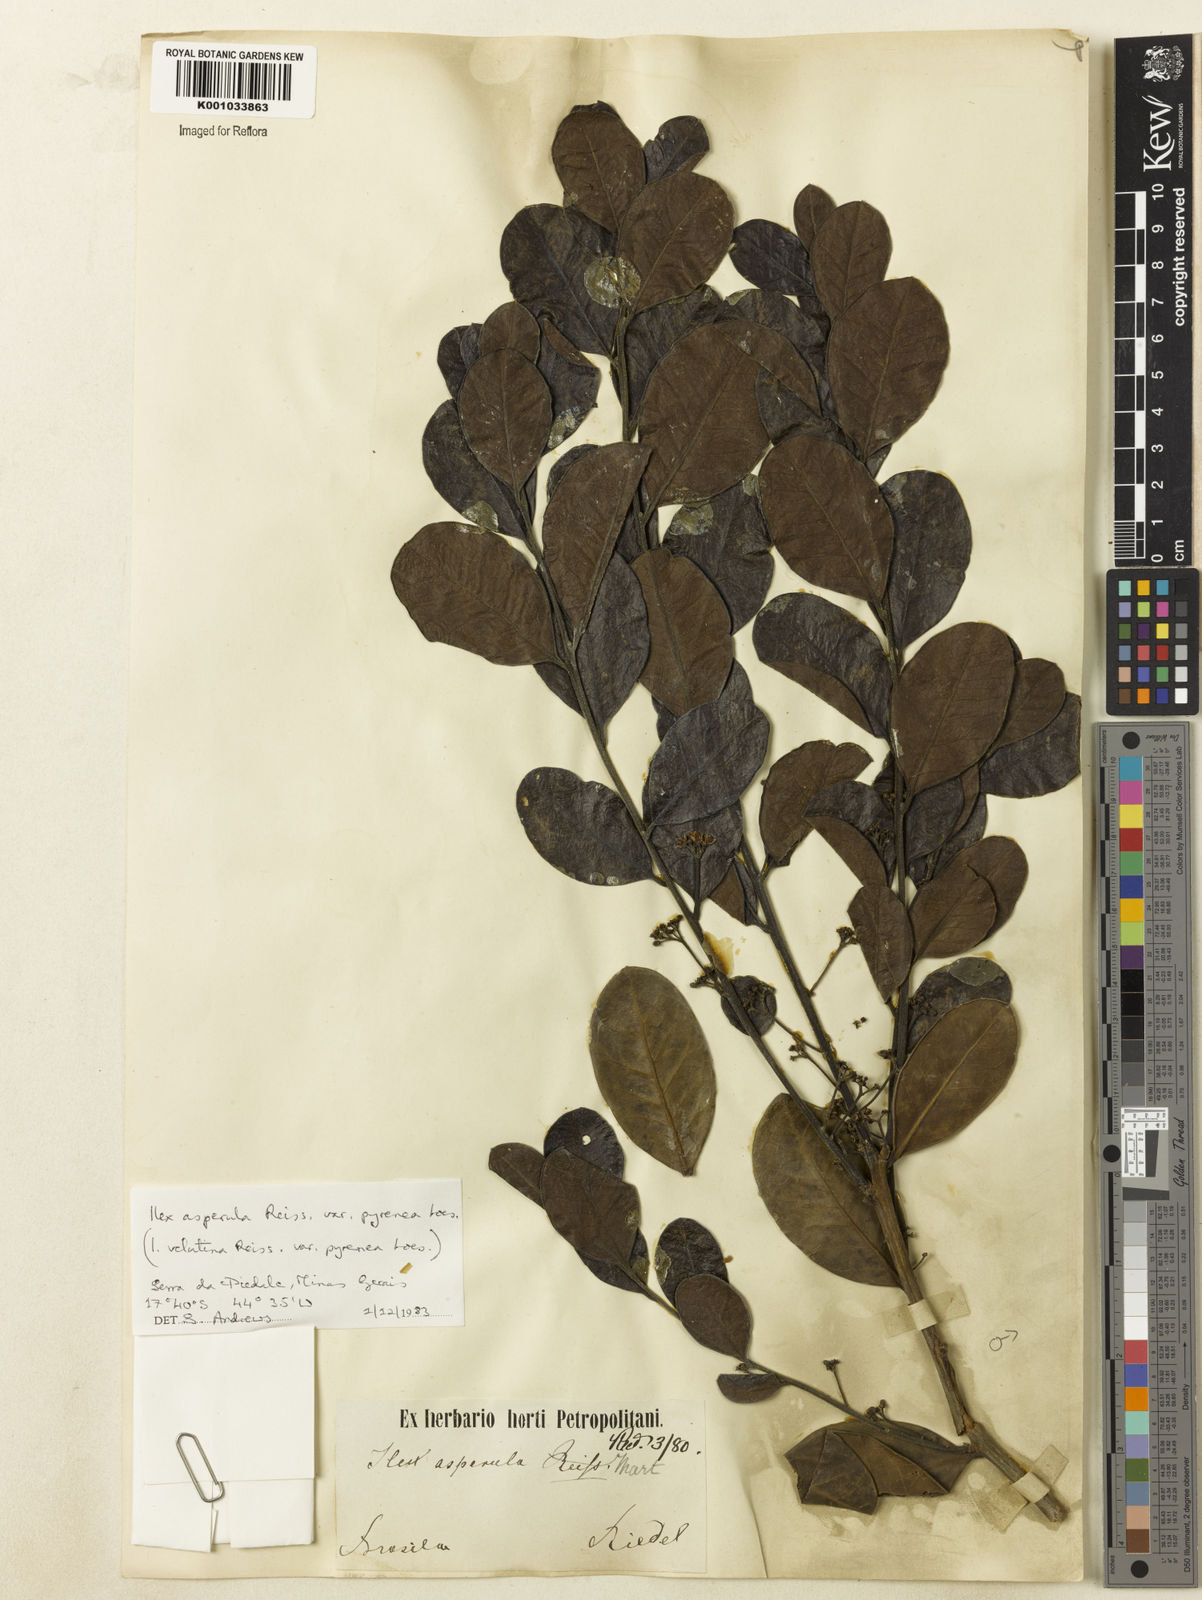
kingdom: Plantae
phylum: Tracheophyta
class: Magnoliopsida
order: Aquifoliales
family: Aquifoliaceae
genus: Ilex
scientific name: Ilex asperula
